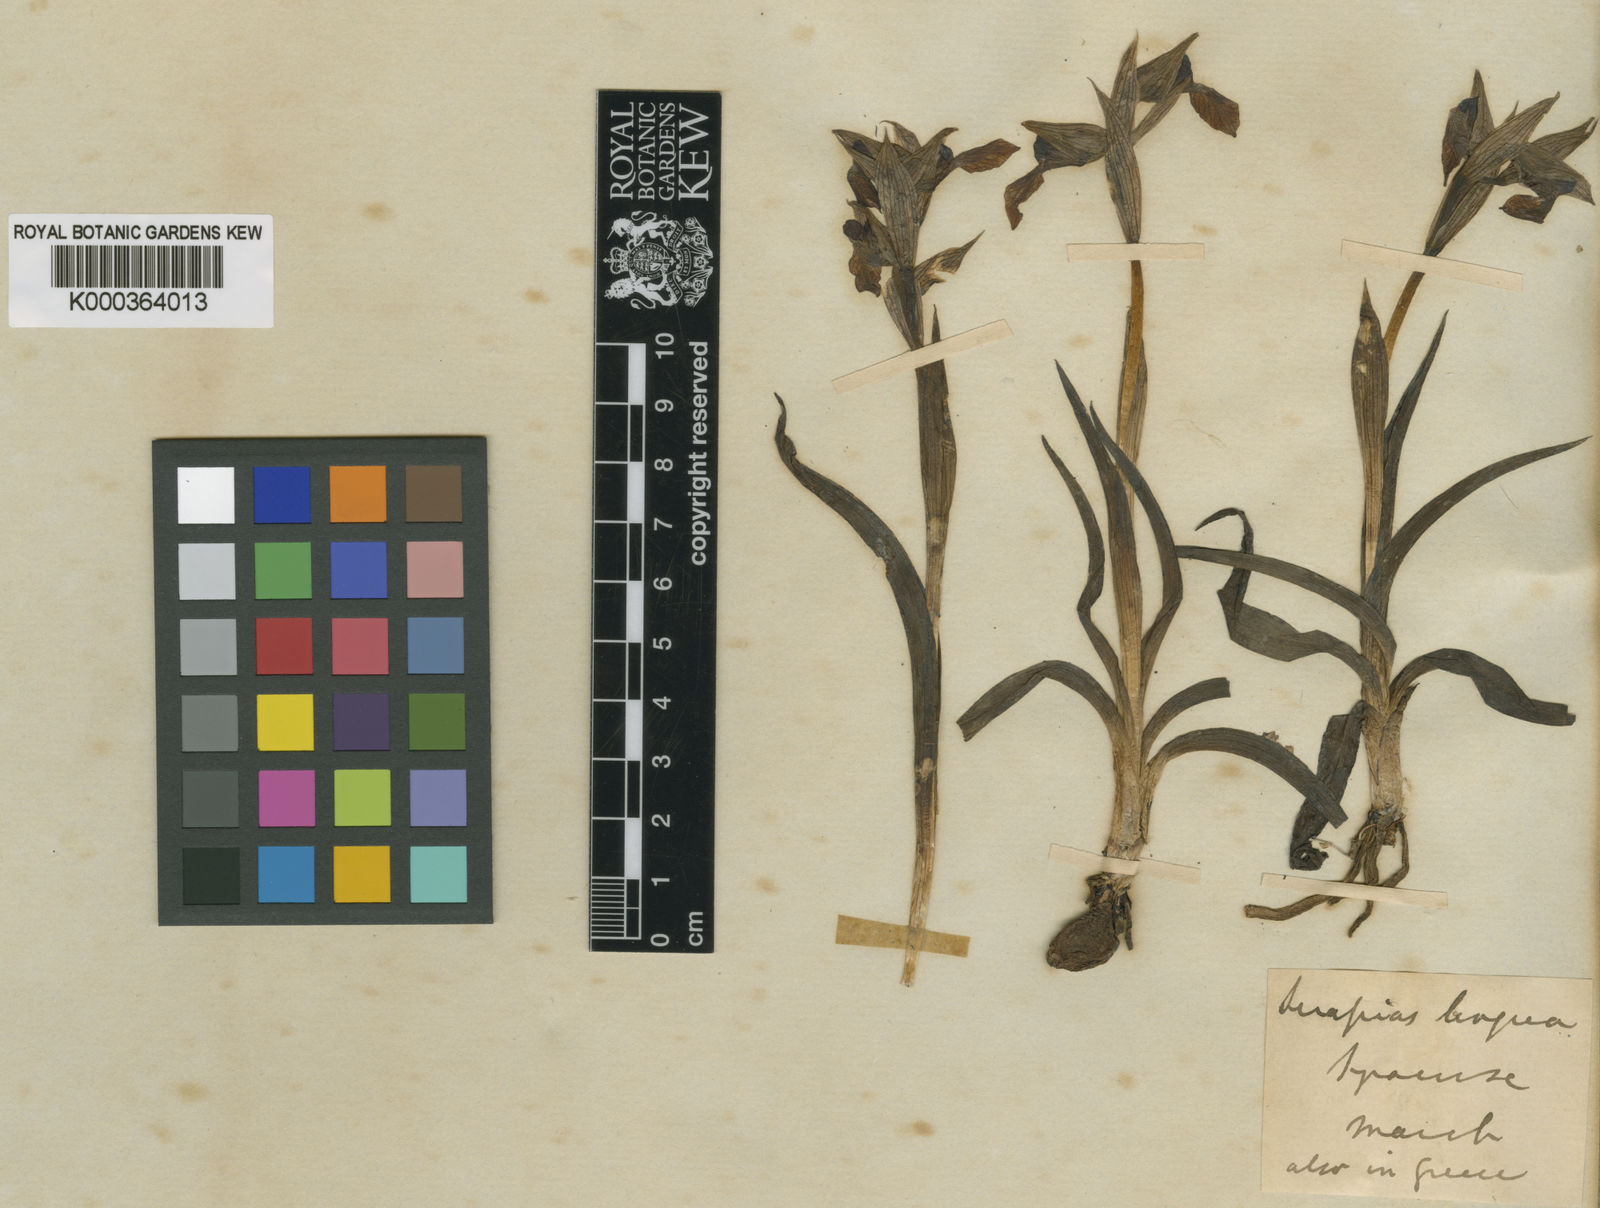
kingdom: Plantae
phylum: Tracheophyta
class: Liliopsida
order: Asparagales
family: Orchidaceae
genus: Serapias
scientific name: Serapias lingua
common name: Tongue-orchid
